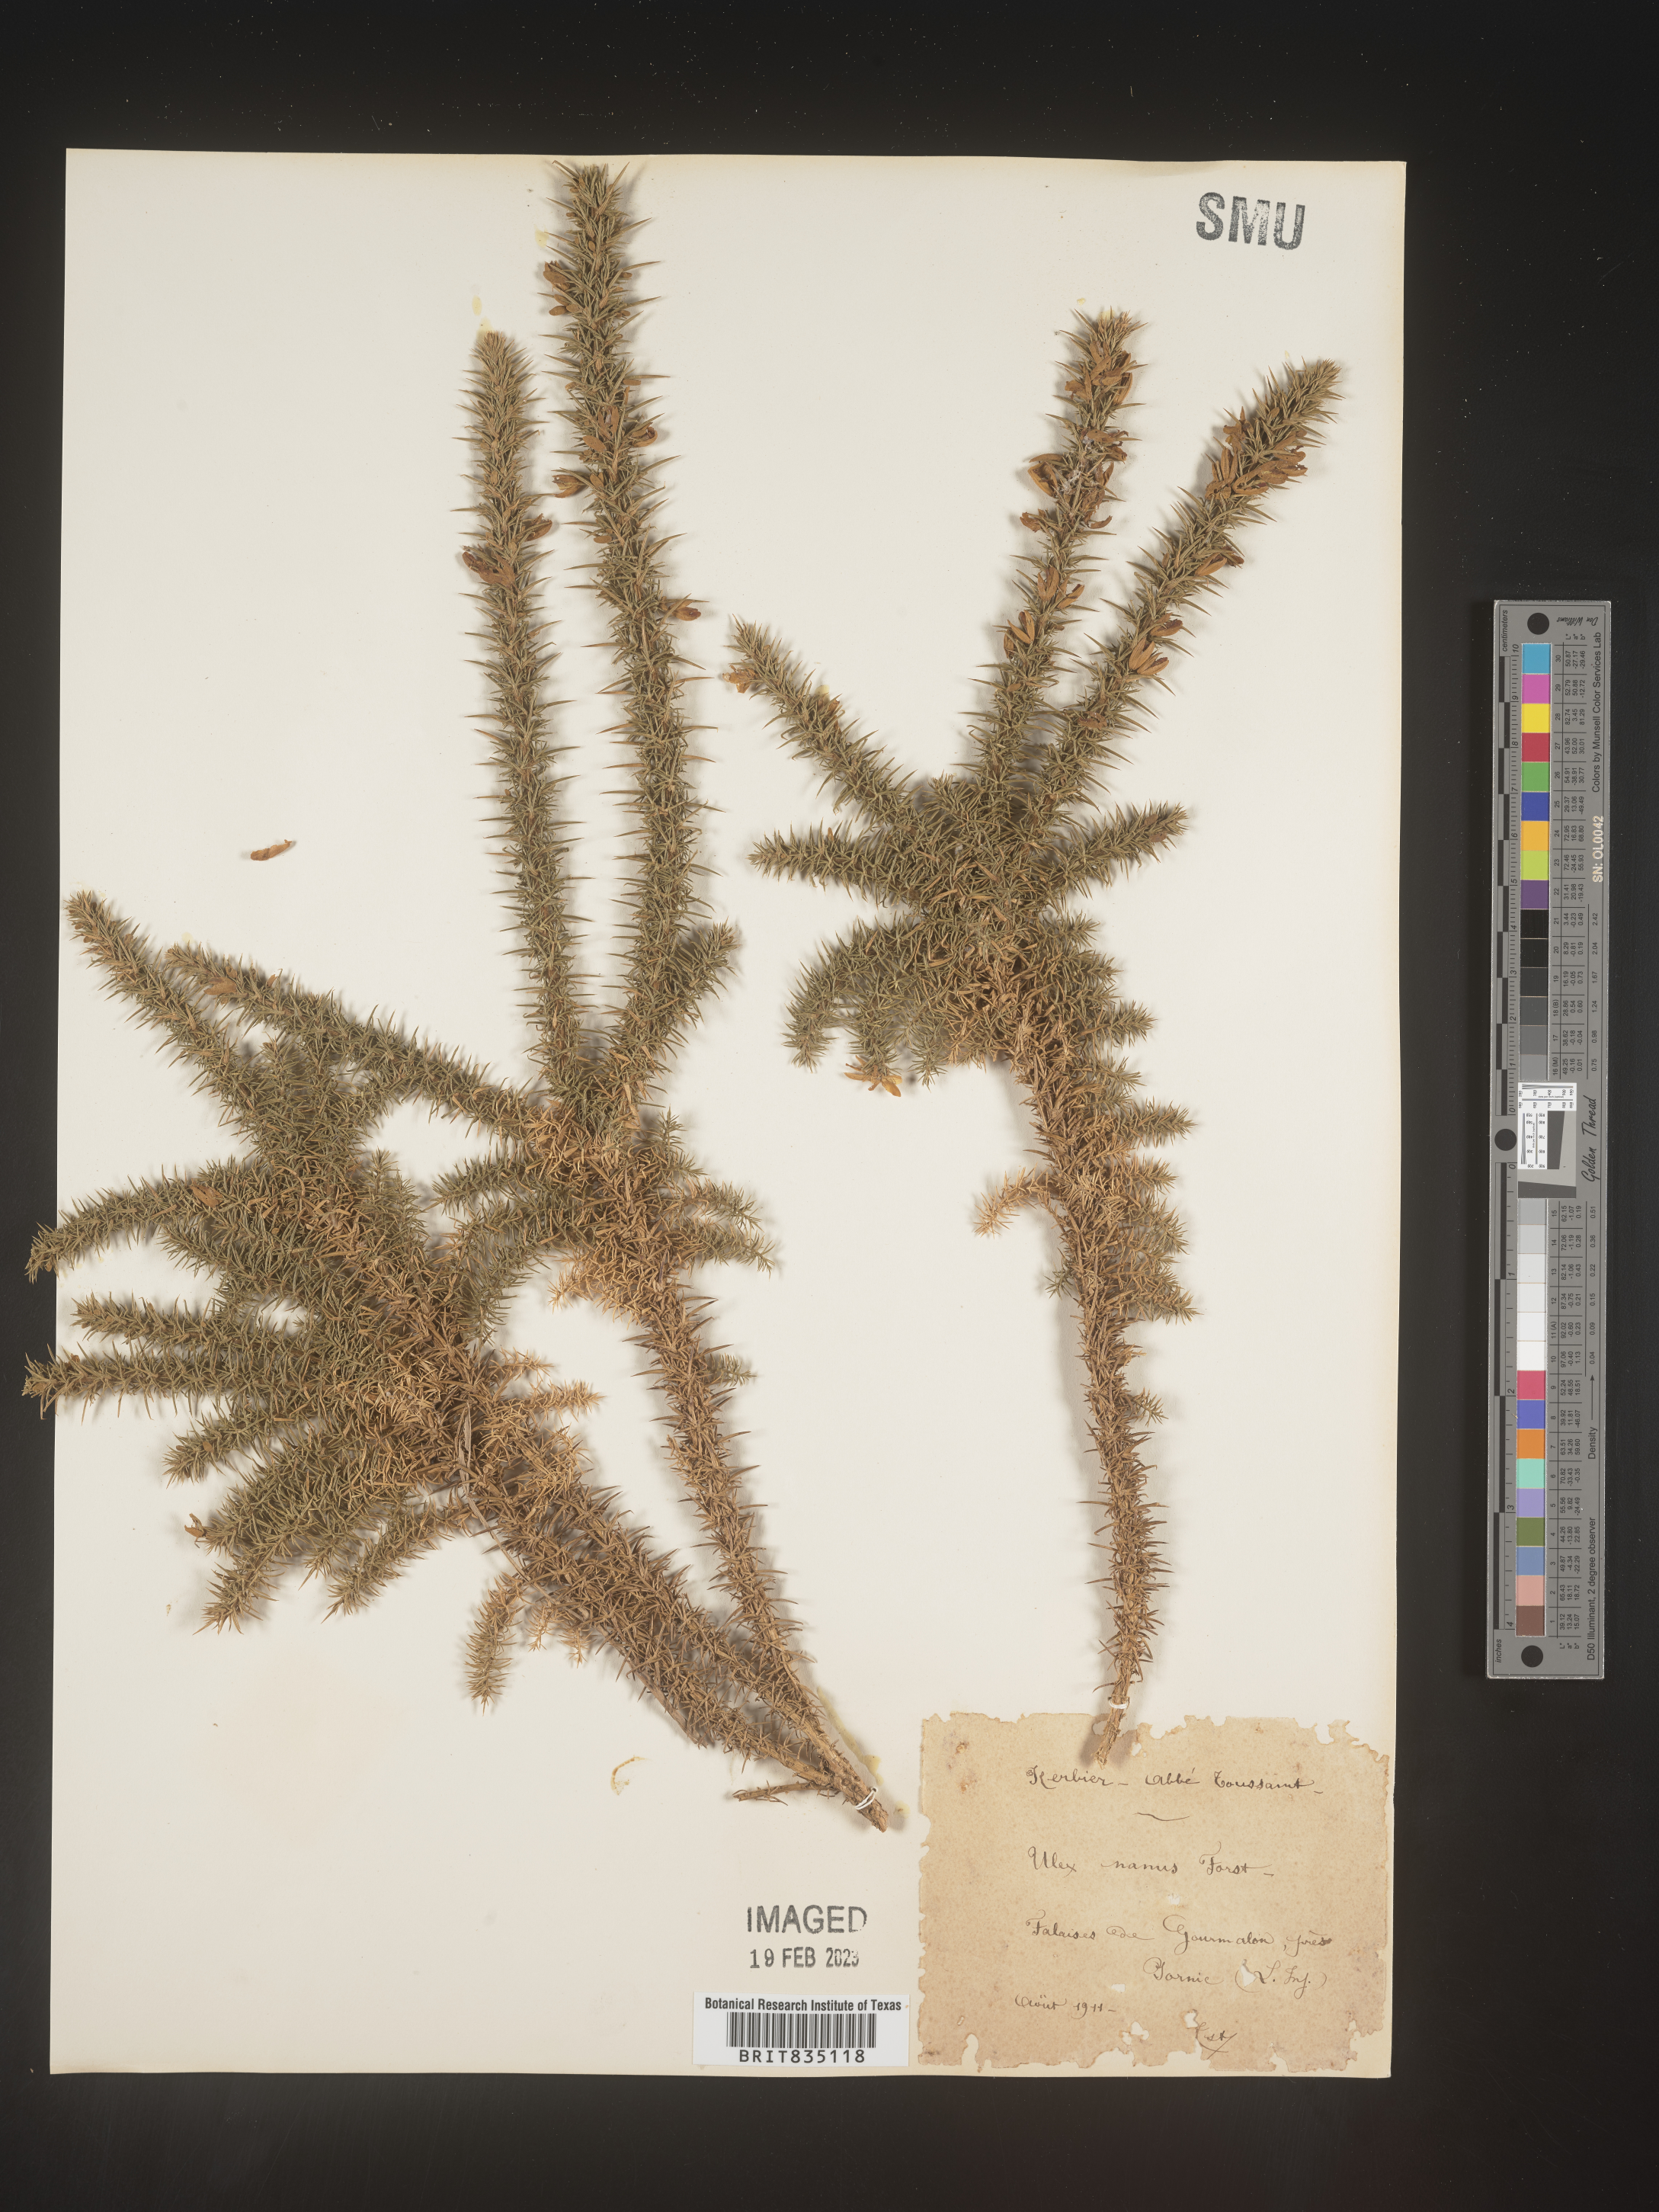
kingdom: Plantae
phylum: Tracheophyta
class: Magnoliopsida
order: Fabales
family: Fabaceae
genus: Ulex
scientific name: Ulex
